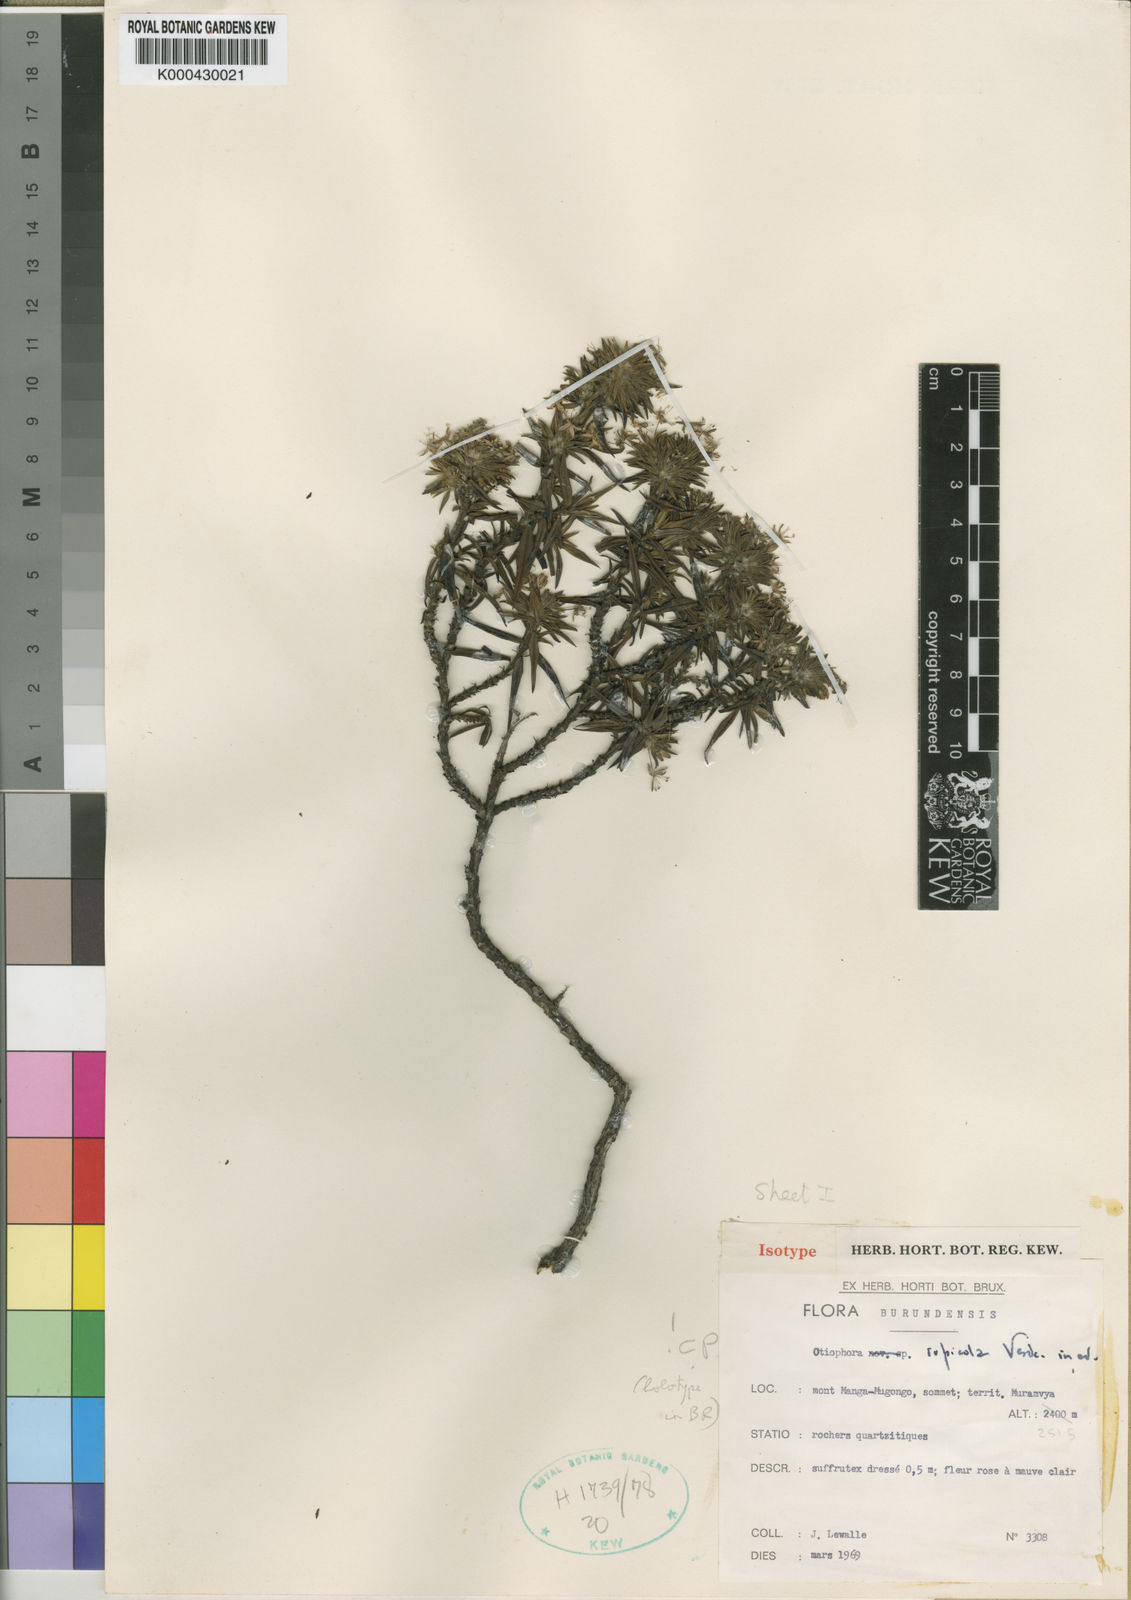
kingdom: Plantae
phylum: Tracheophyta
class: Magnoliopsida
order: Gentianales
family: Rubiaceae
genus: Otiophora
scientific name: Otiophora rupicola
